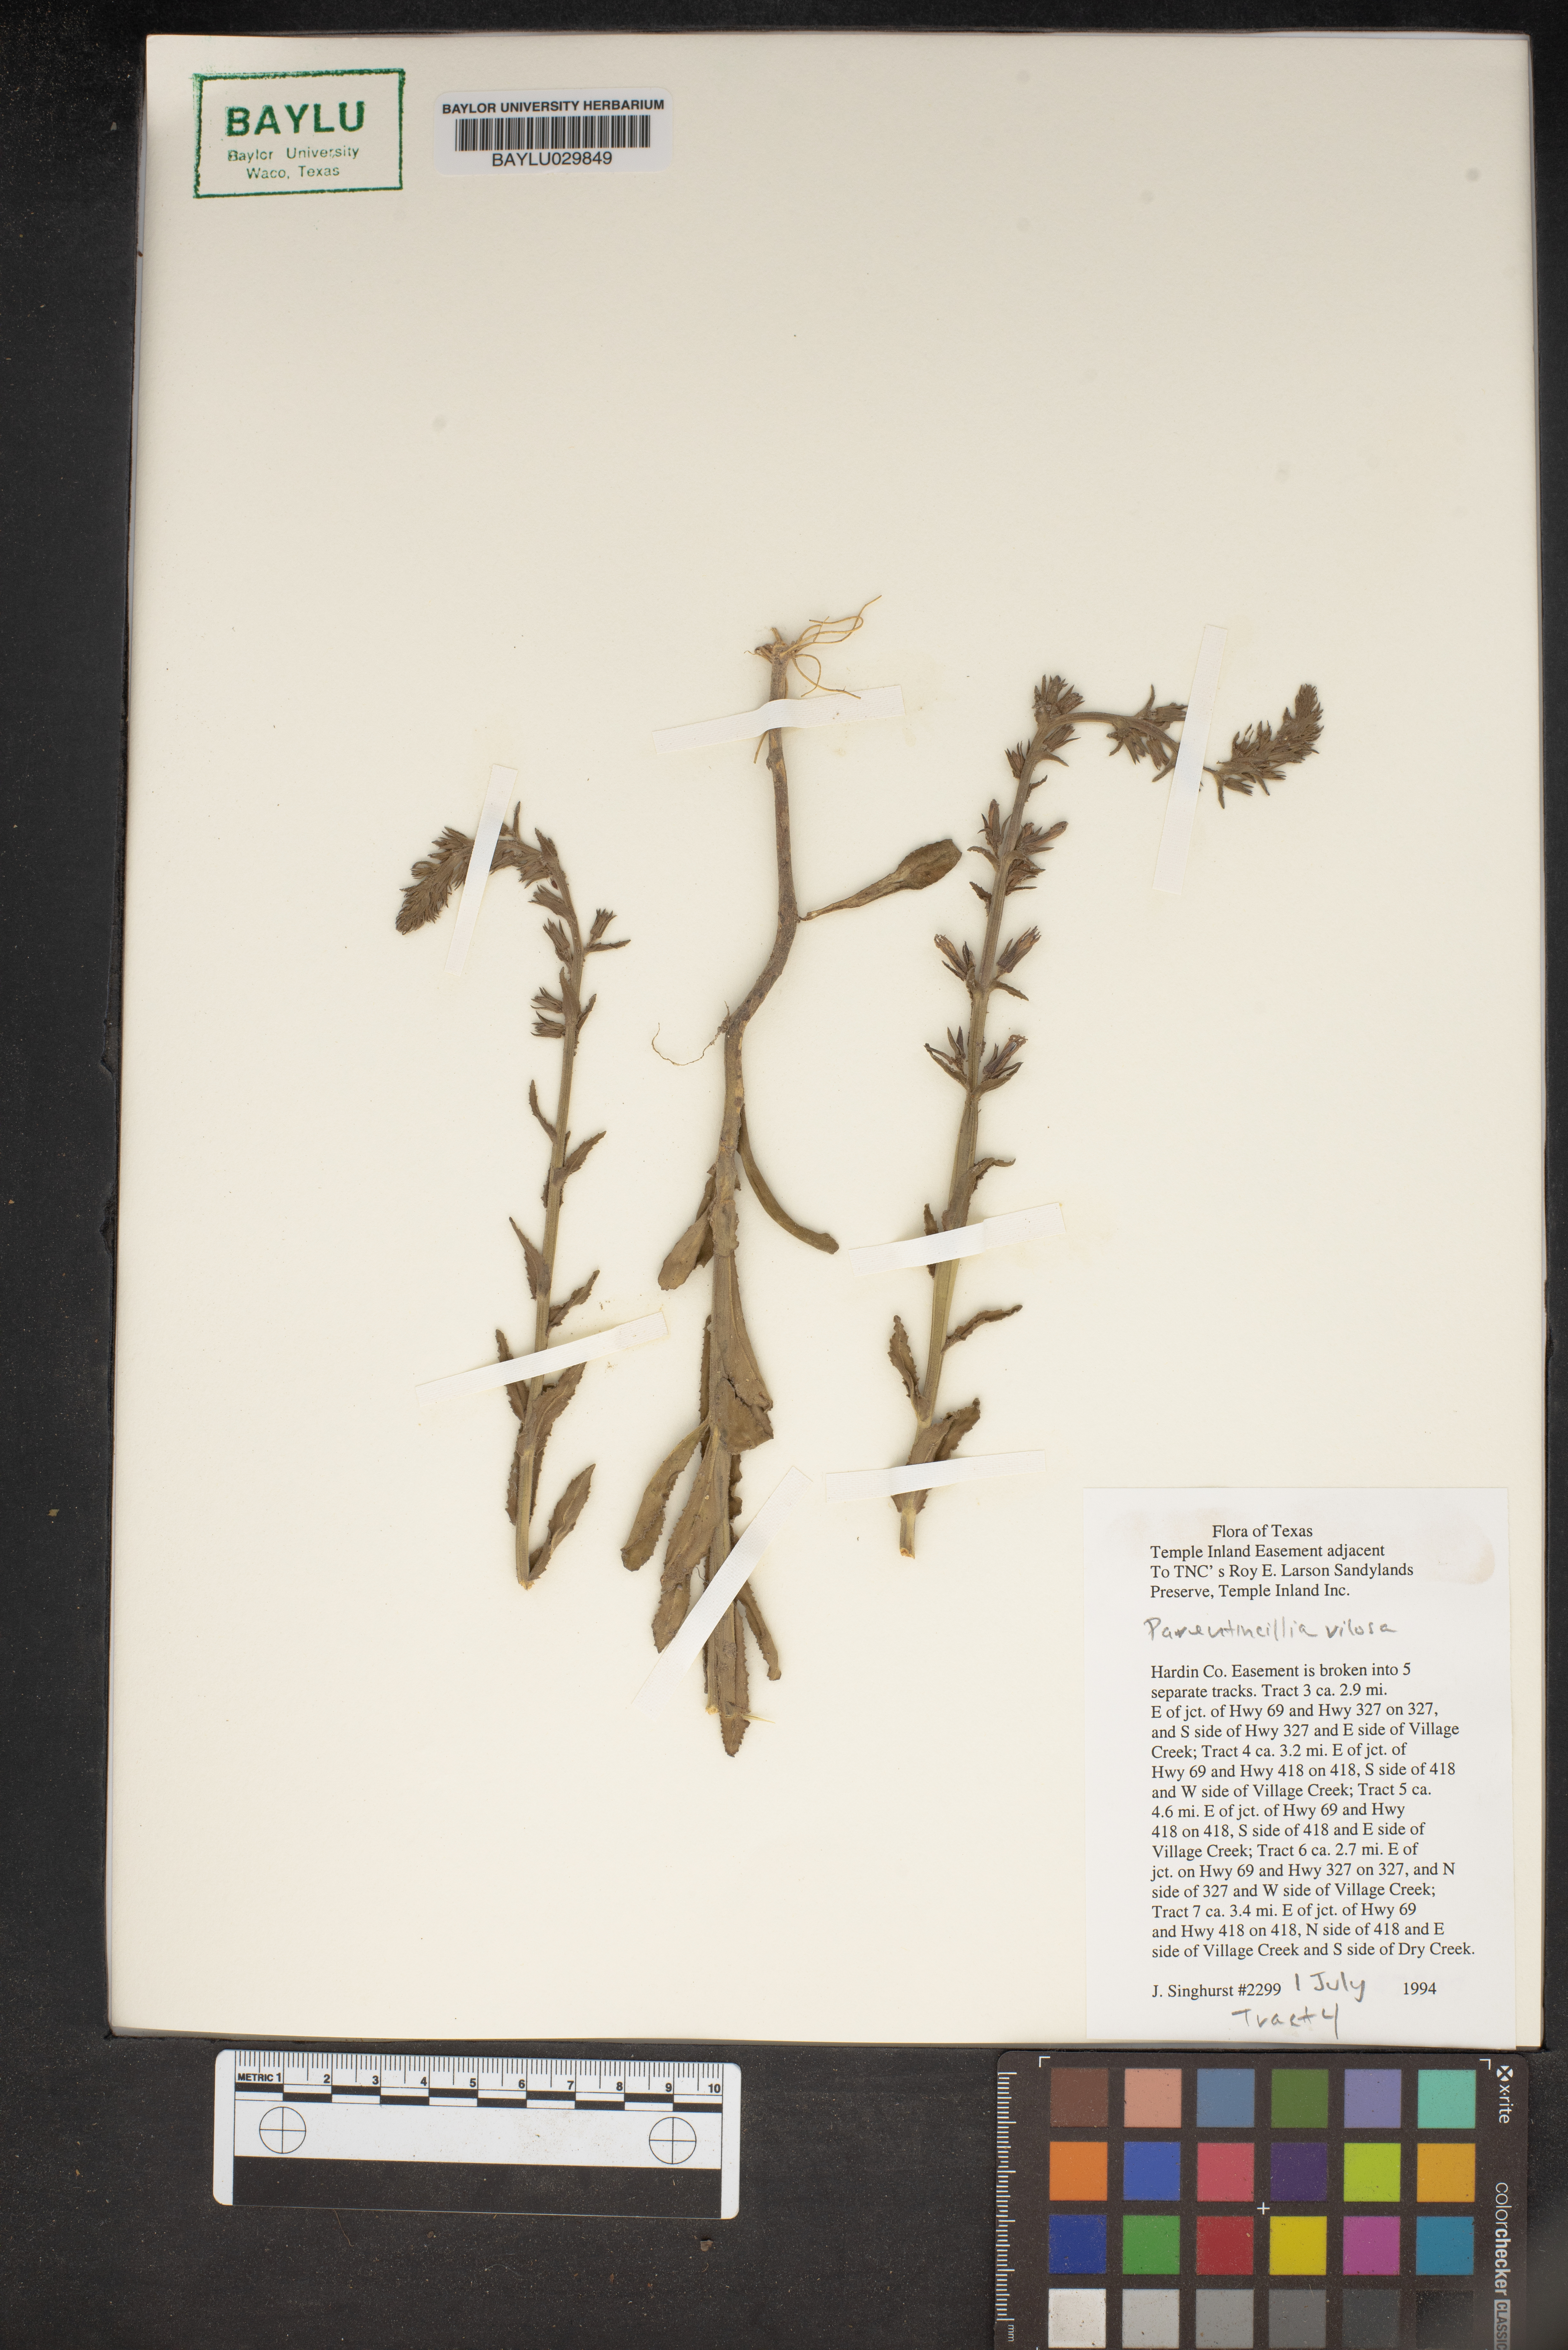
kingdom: Plantae
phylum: Tracheophyta
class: Magnoliopsida
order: Lamiales
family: Orobanchaceae
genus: Bellardia
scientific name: Bellardia viscosa
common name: Sticky parentucellia
